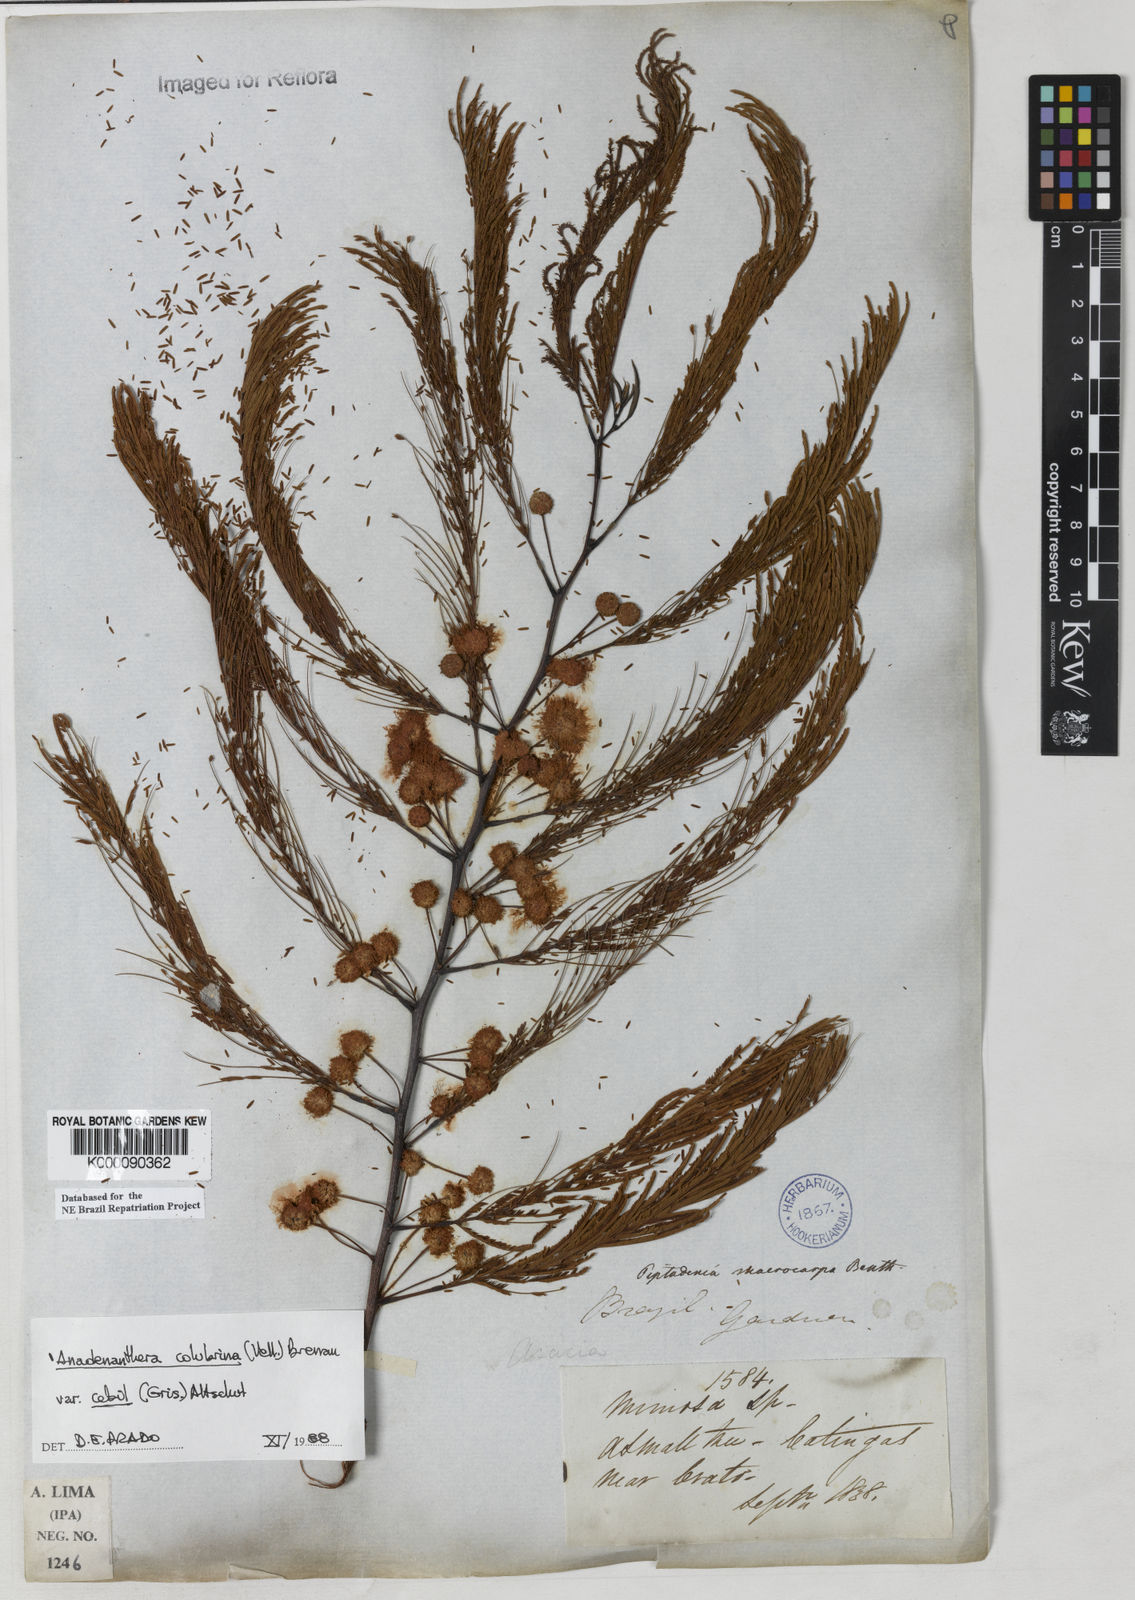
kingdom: Plantae
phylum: Tracheophyta
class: Magnoliopsida
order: Fabales
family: Fabaceae
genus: Anadenanthera
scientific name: Anadenanthera colubrina
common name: Curupay
